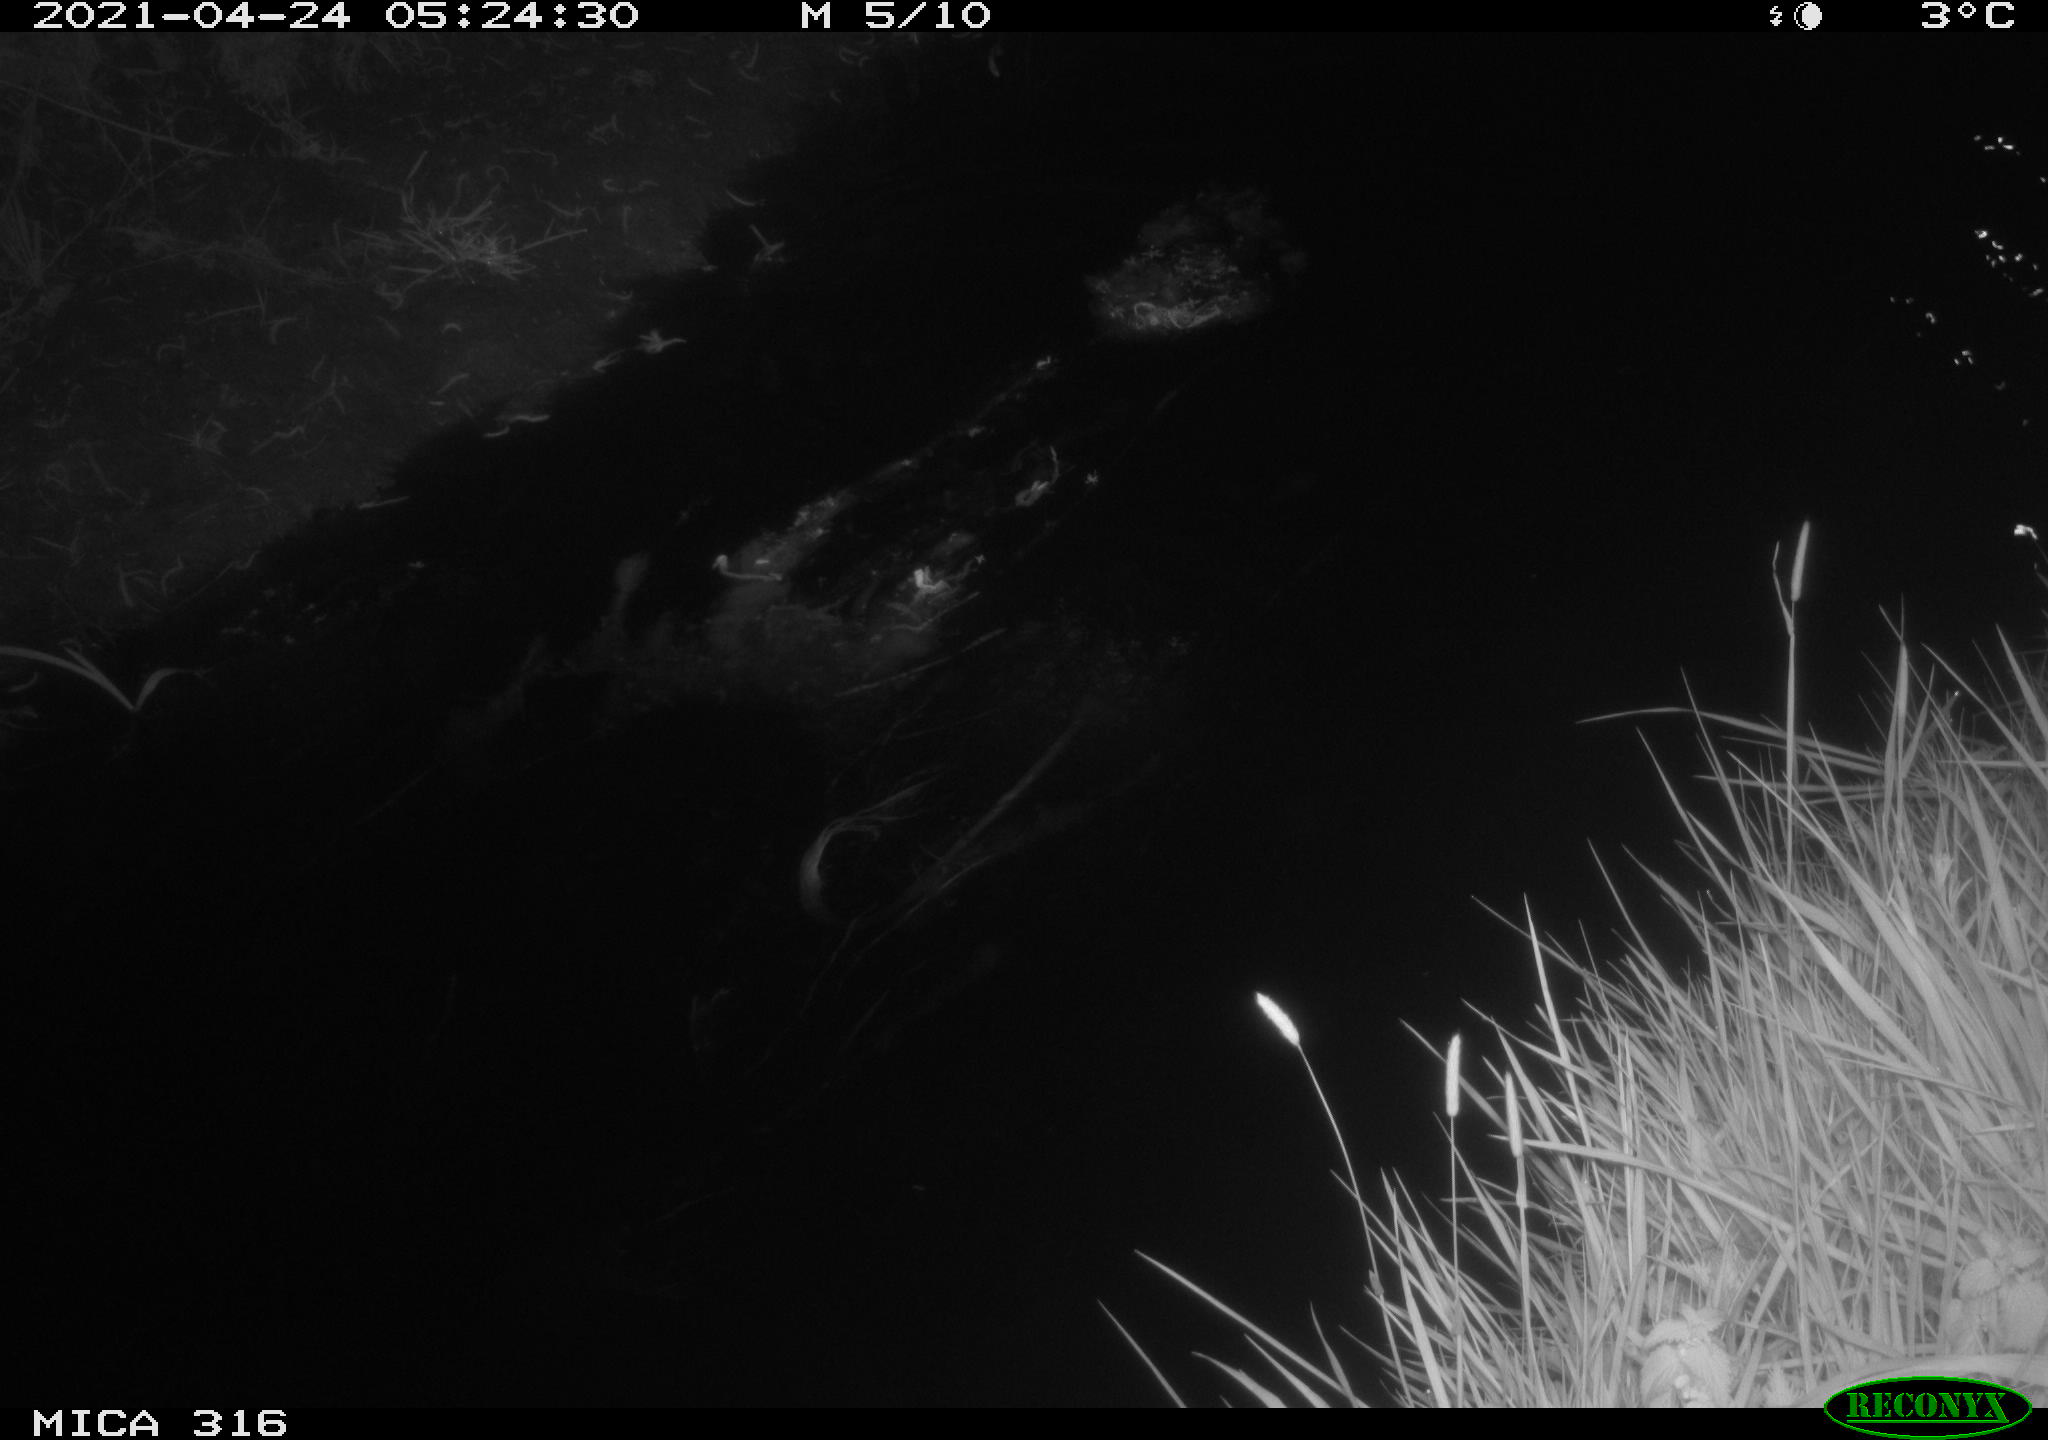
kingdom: Animalia
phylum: Chordata
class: Aves
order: Anseriformes
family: Anatidae
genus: Anas
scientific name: Anas platyrhynchos
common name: Mallard
